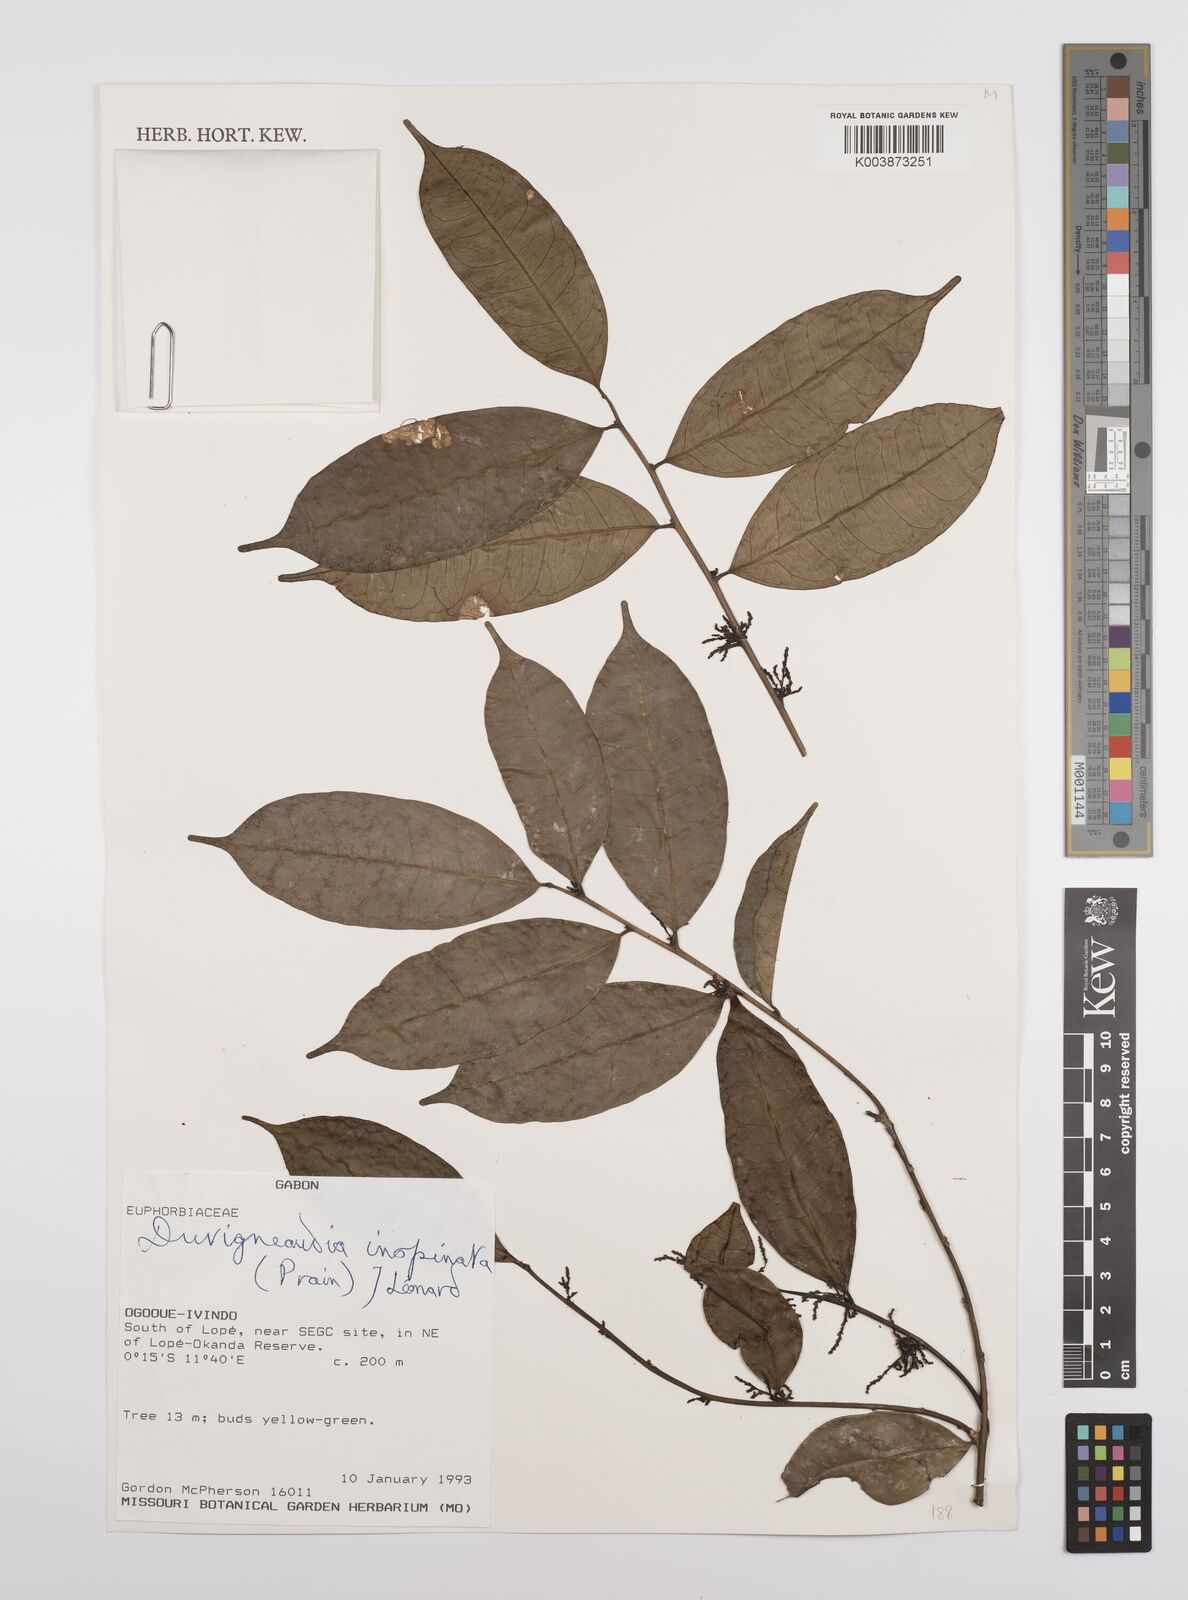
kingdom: Plantae
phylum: Tracheophyta
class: Magnoliopsida
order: Malpighiales
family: Euphorbiaceae
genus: Gymnanthes
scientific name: Gymnanthes inopinata
